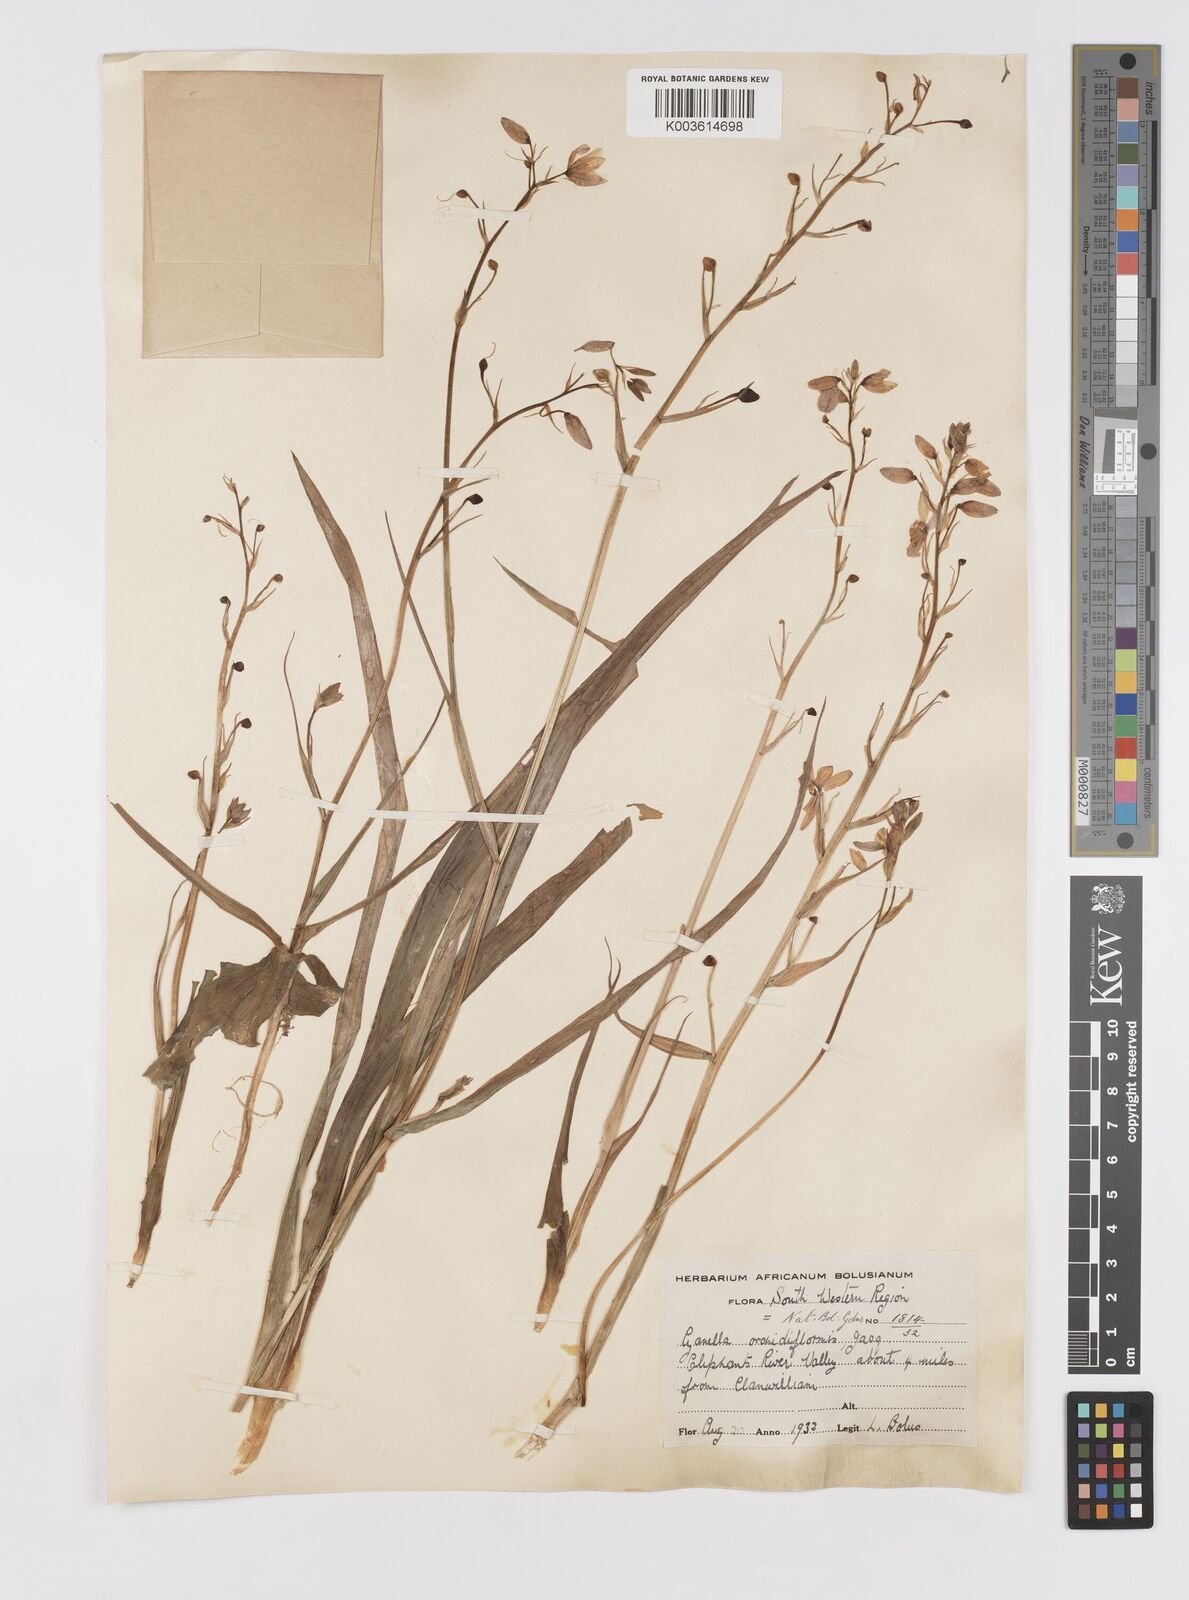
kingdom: Plantae
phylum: Tracheophyta
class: Liliopsida
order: Asparagales
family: Tecophilaeaceae
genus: Cyanella
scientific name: Cyanella orchidiformis
